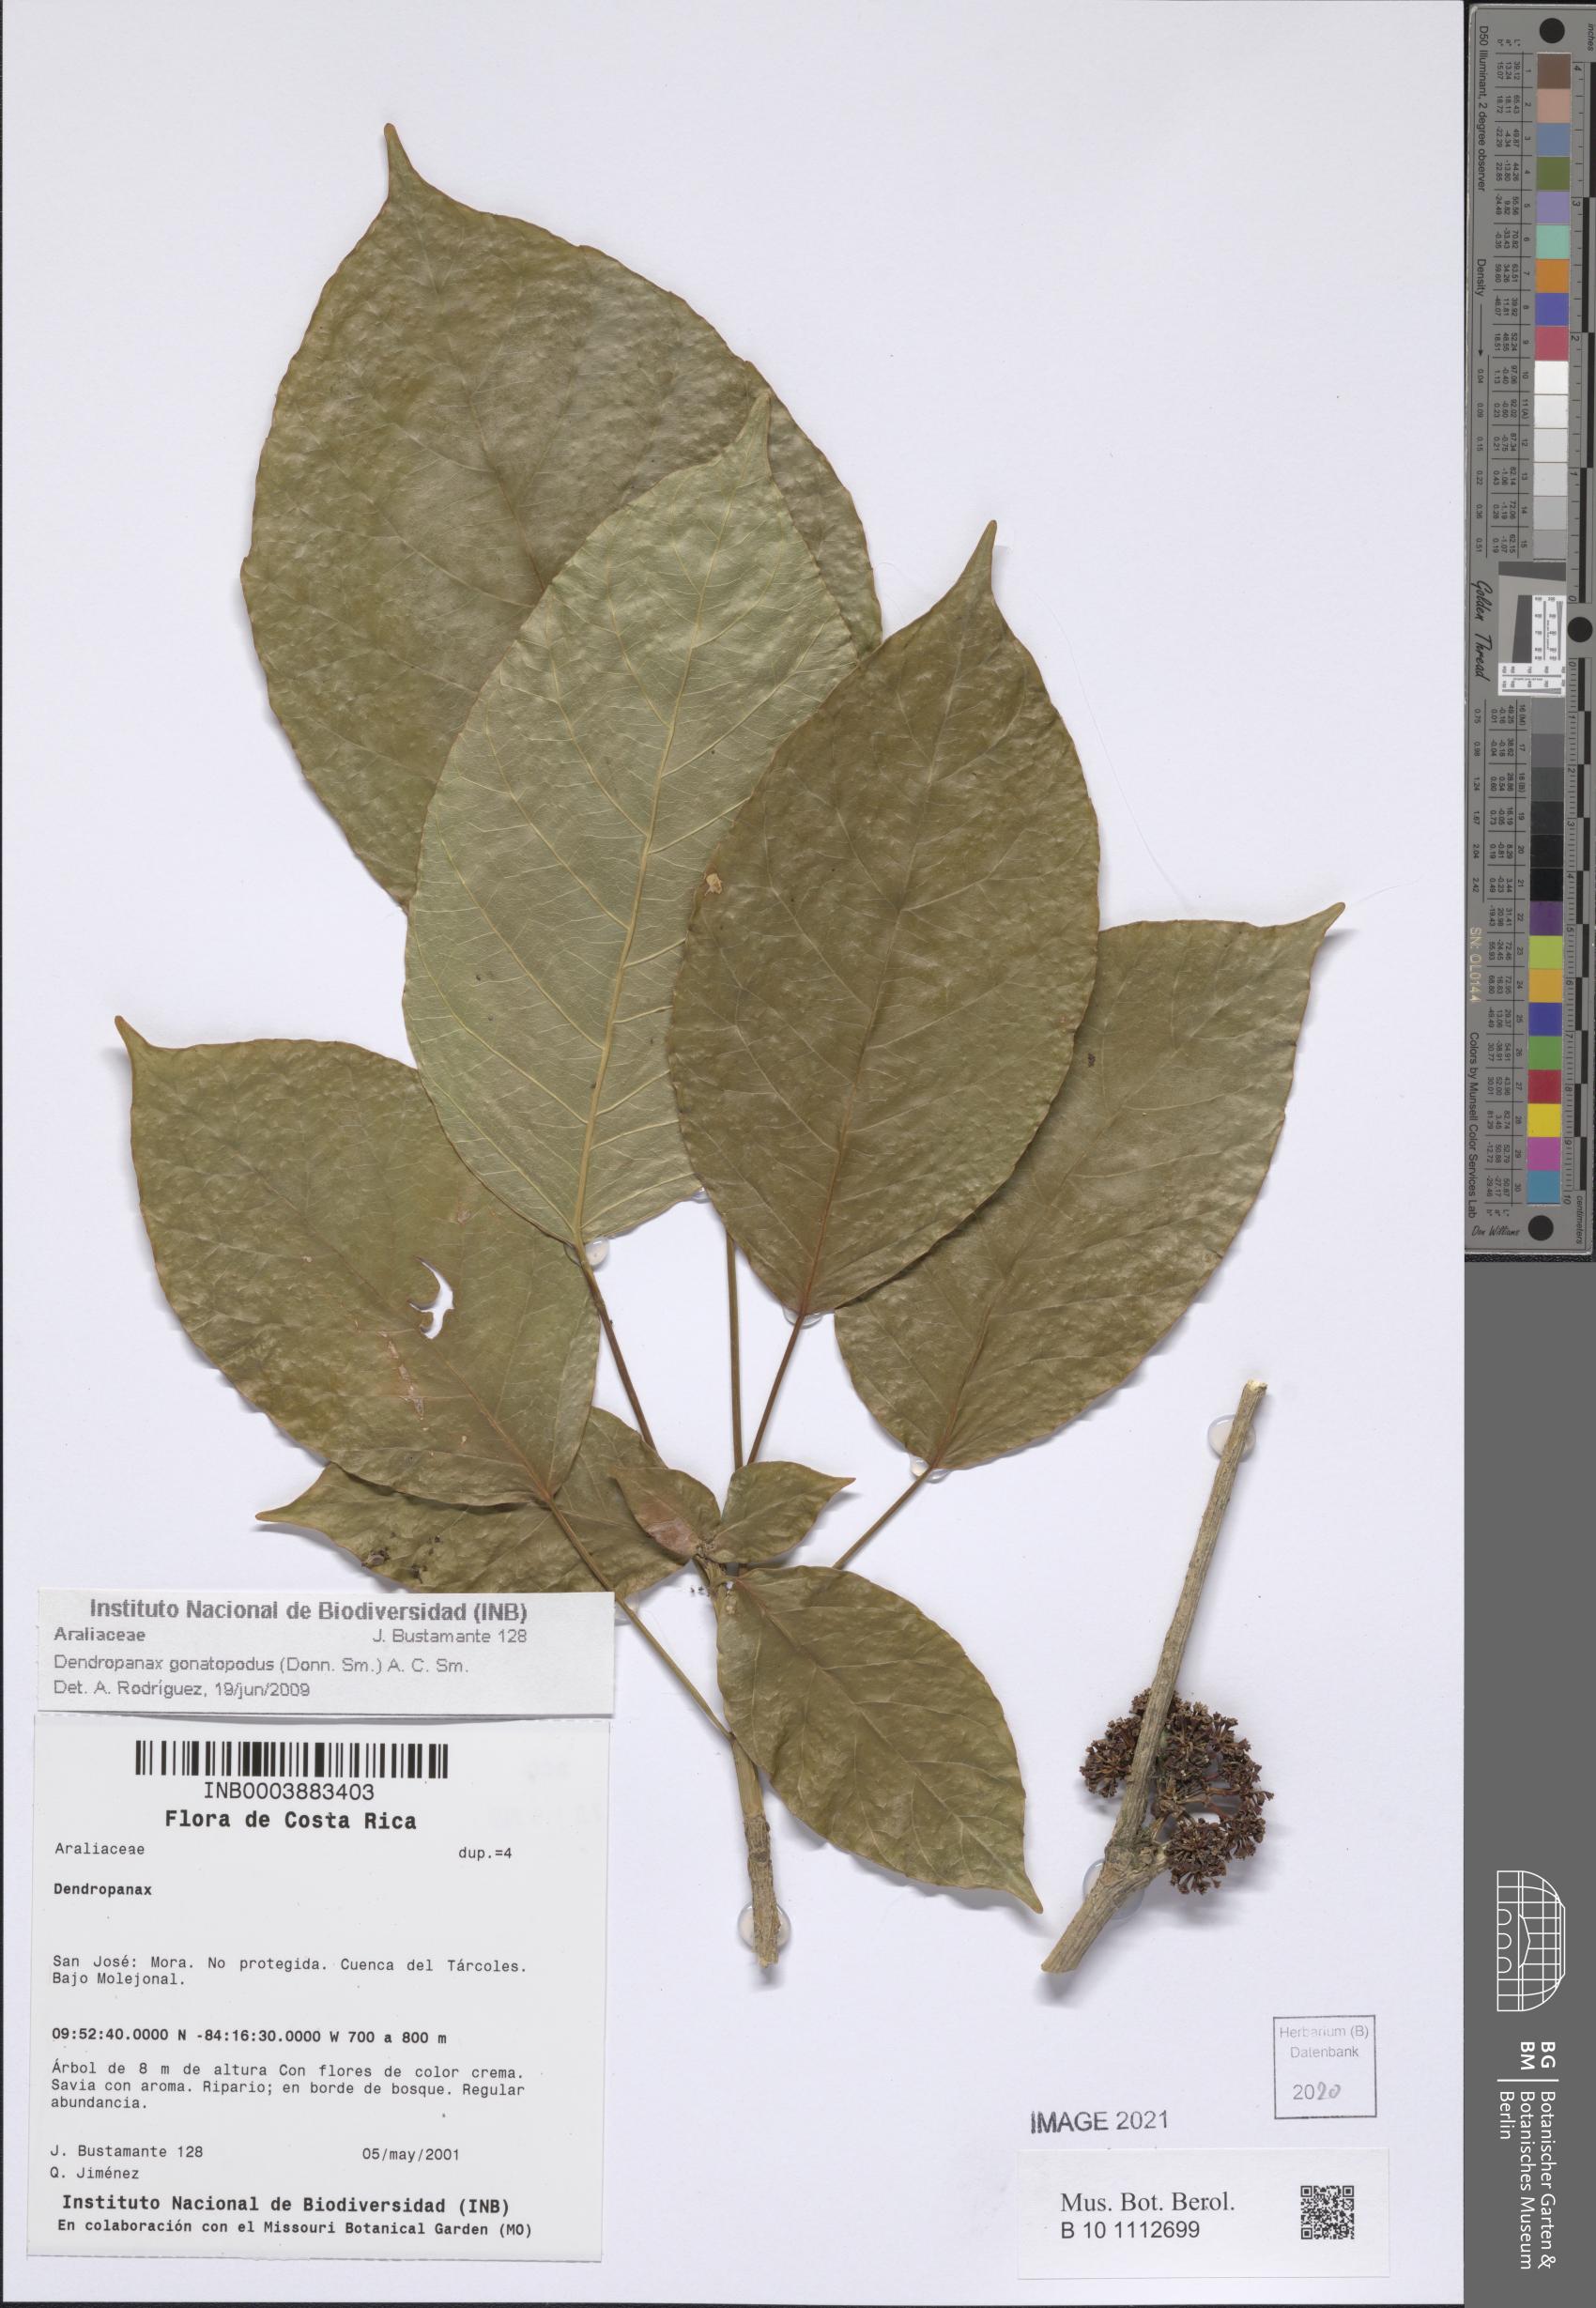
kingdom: Plantae
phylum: Tracheophyta
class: Magnoliopsida
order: Apiales
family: Araliaceae
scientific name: Araliaceae
